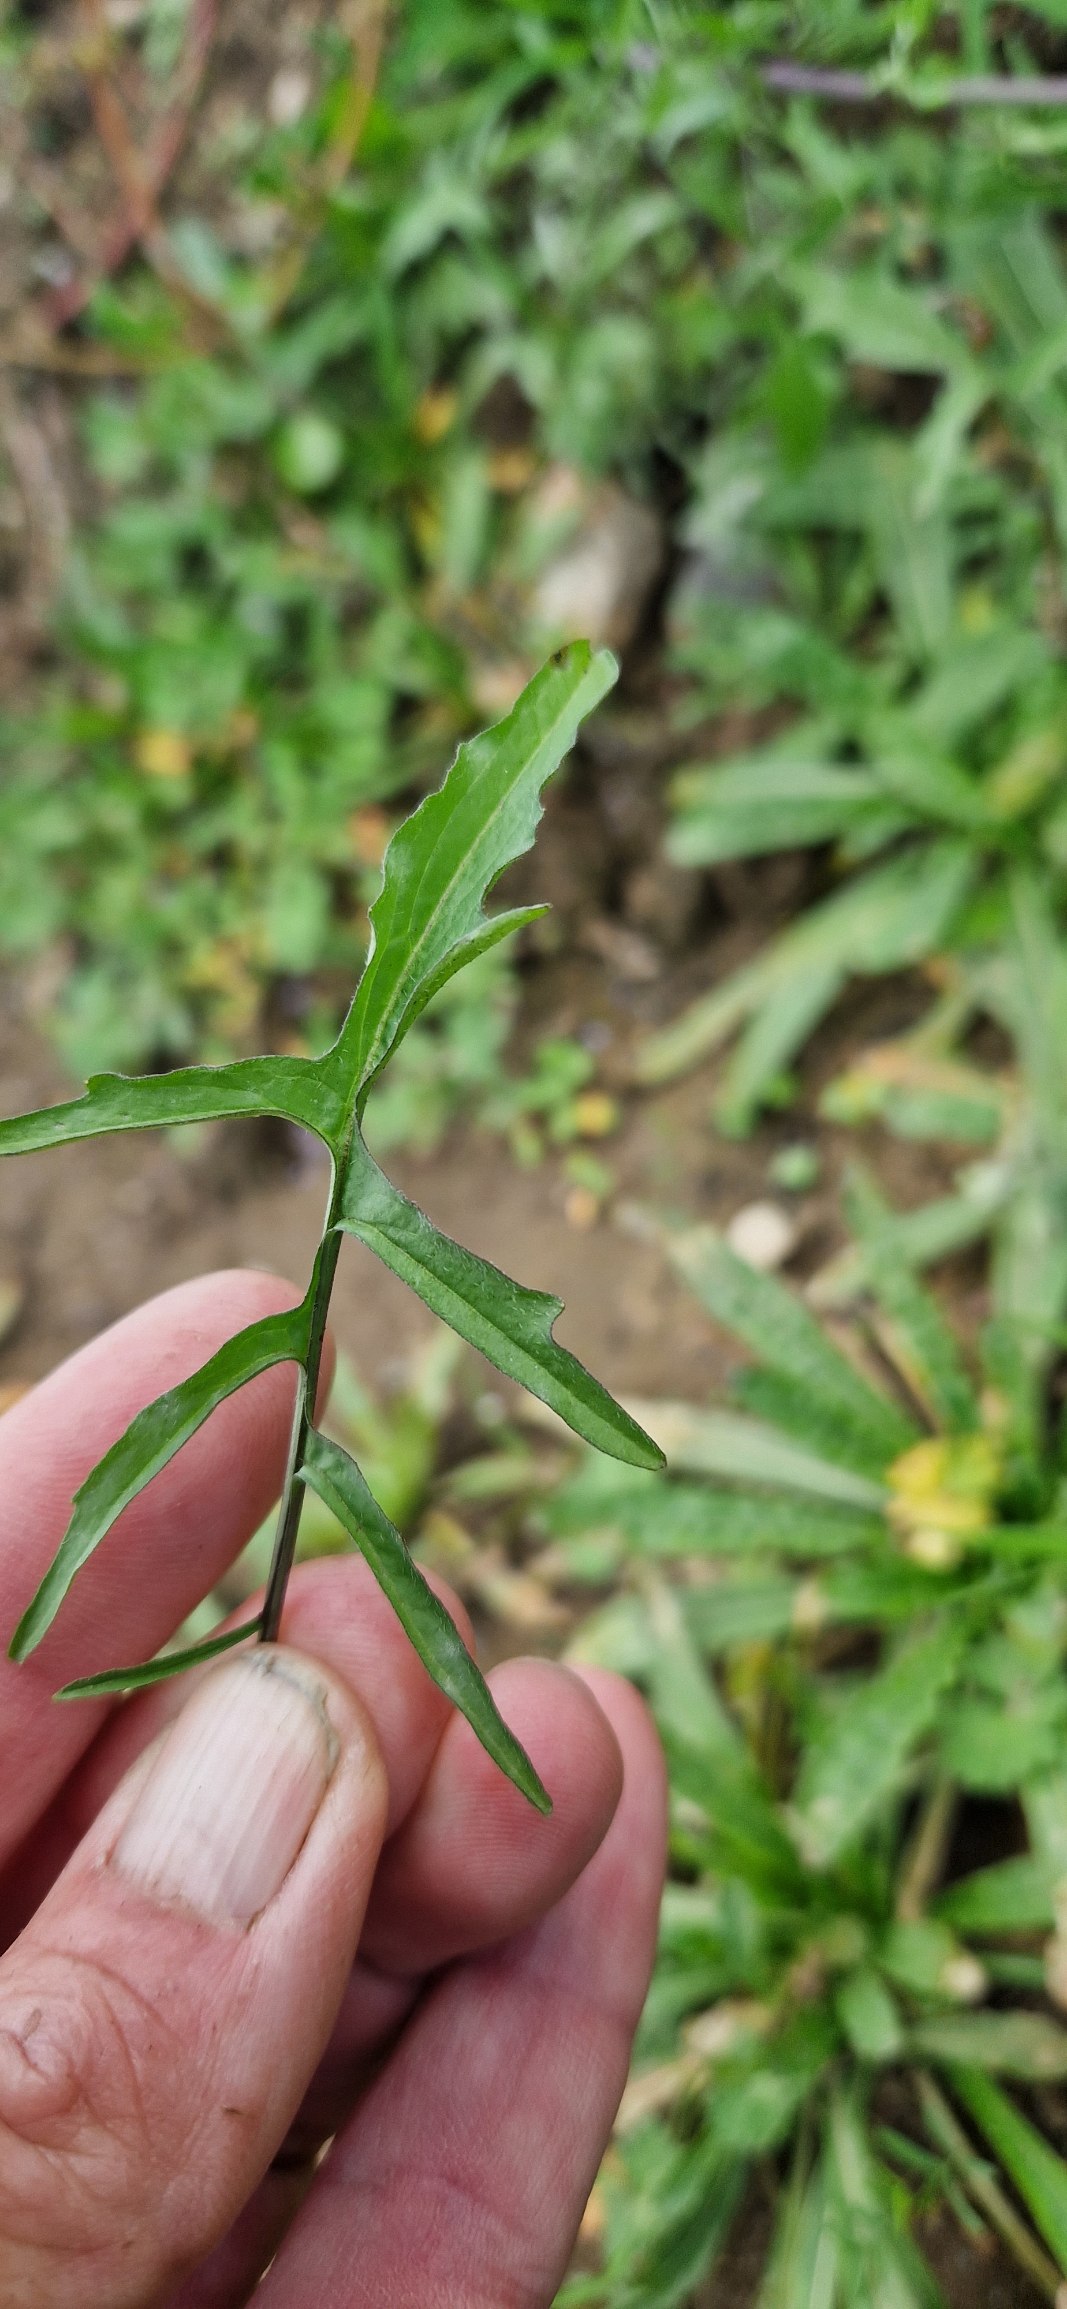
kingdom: Plantae
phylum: Tracheophyta
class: Magnoliopsida
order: Brassicales
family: Brassicaceae
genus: Sisymbrium
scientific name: Sisymbrium officinale
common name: Rank vejsennep
